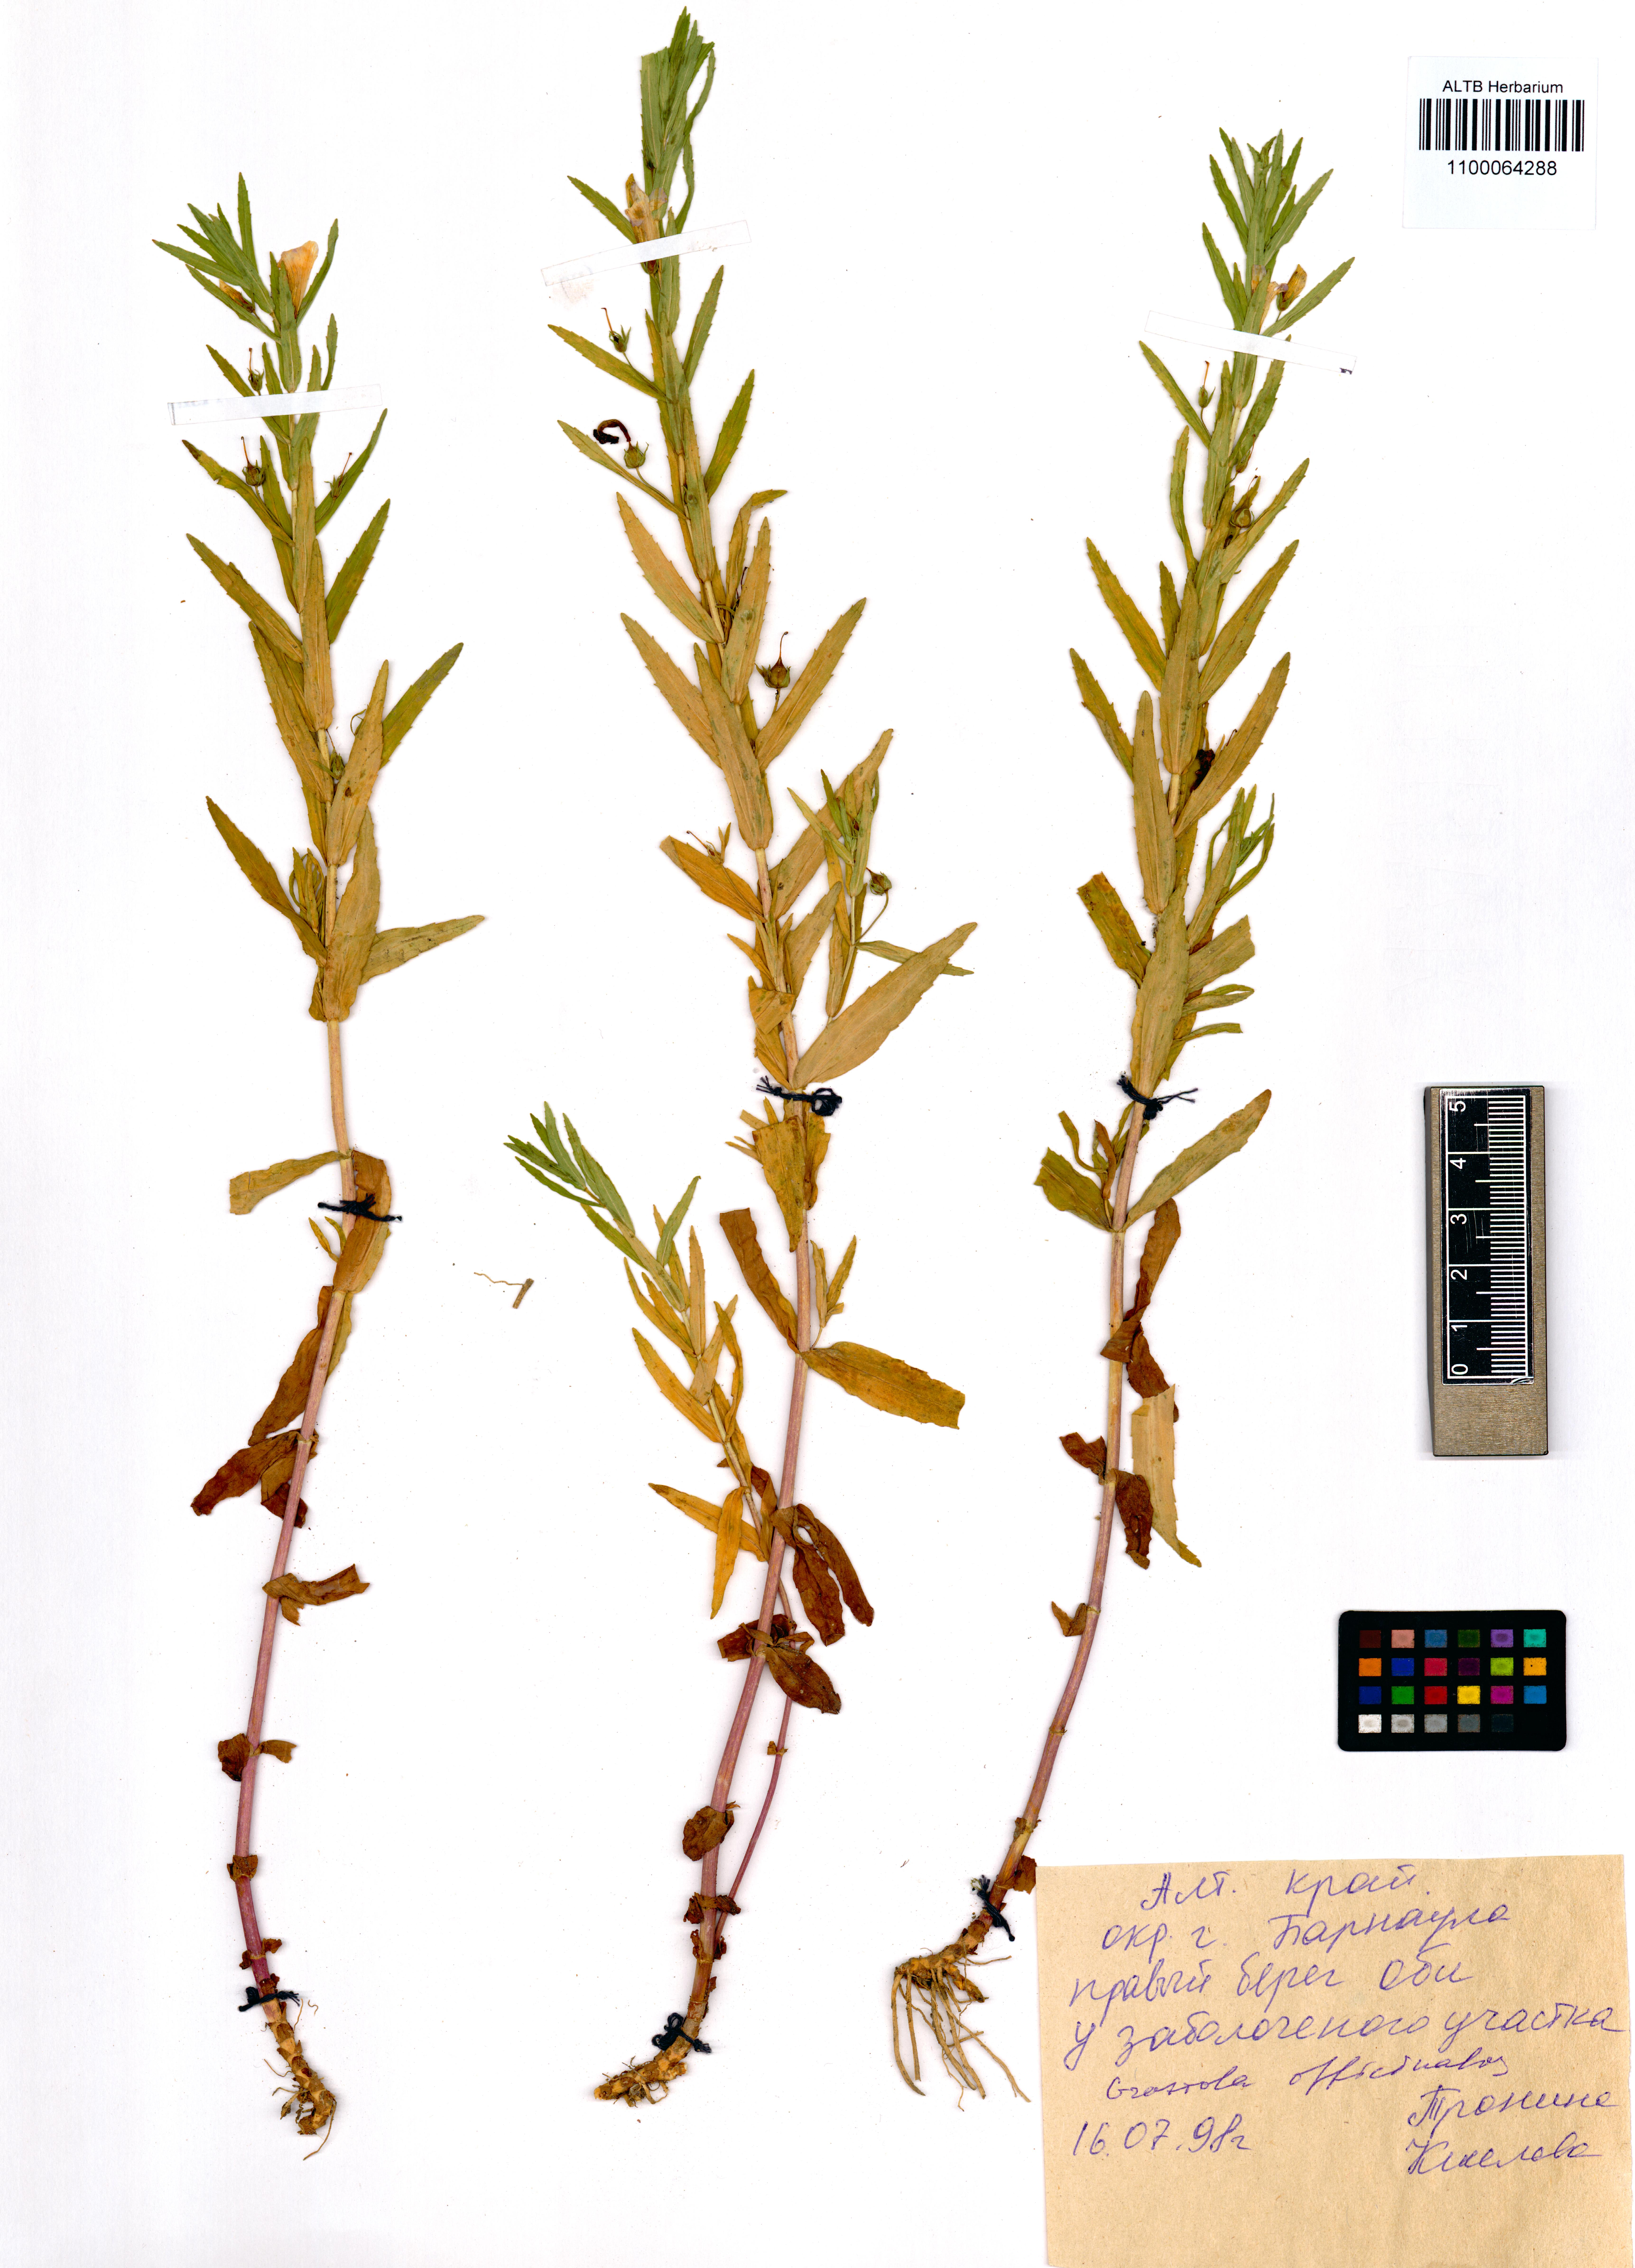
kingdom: Plantae
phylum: Tracheophyta
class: Magnoliopsida
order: Lamiales
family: Plantaginaceae
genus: Gratiola
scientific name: Gratiola officinalis
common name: Gratiola
